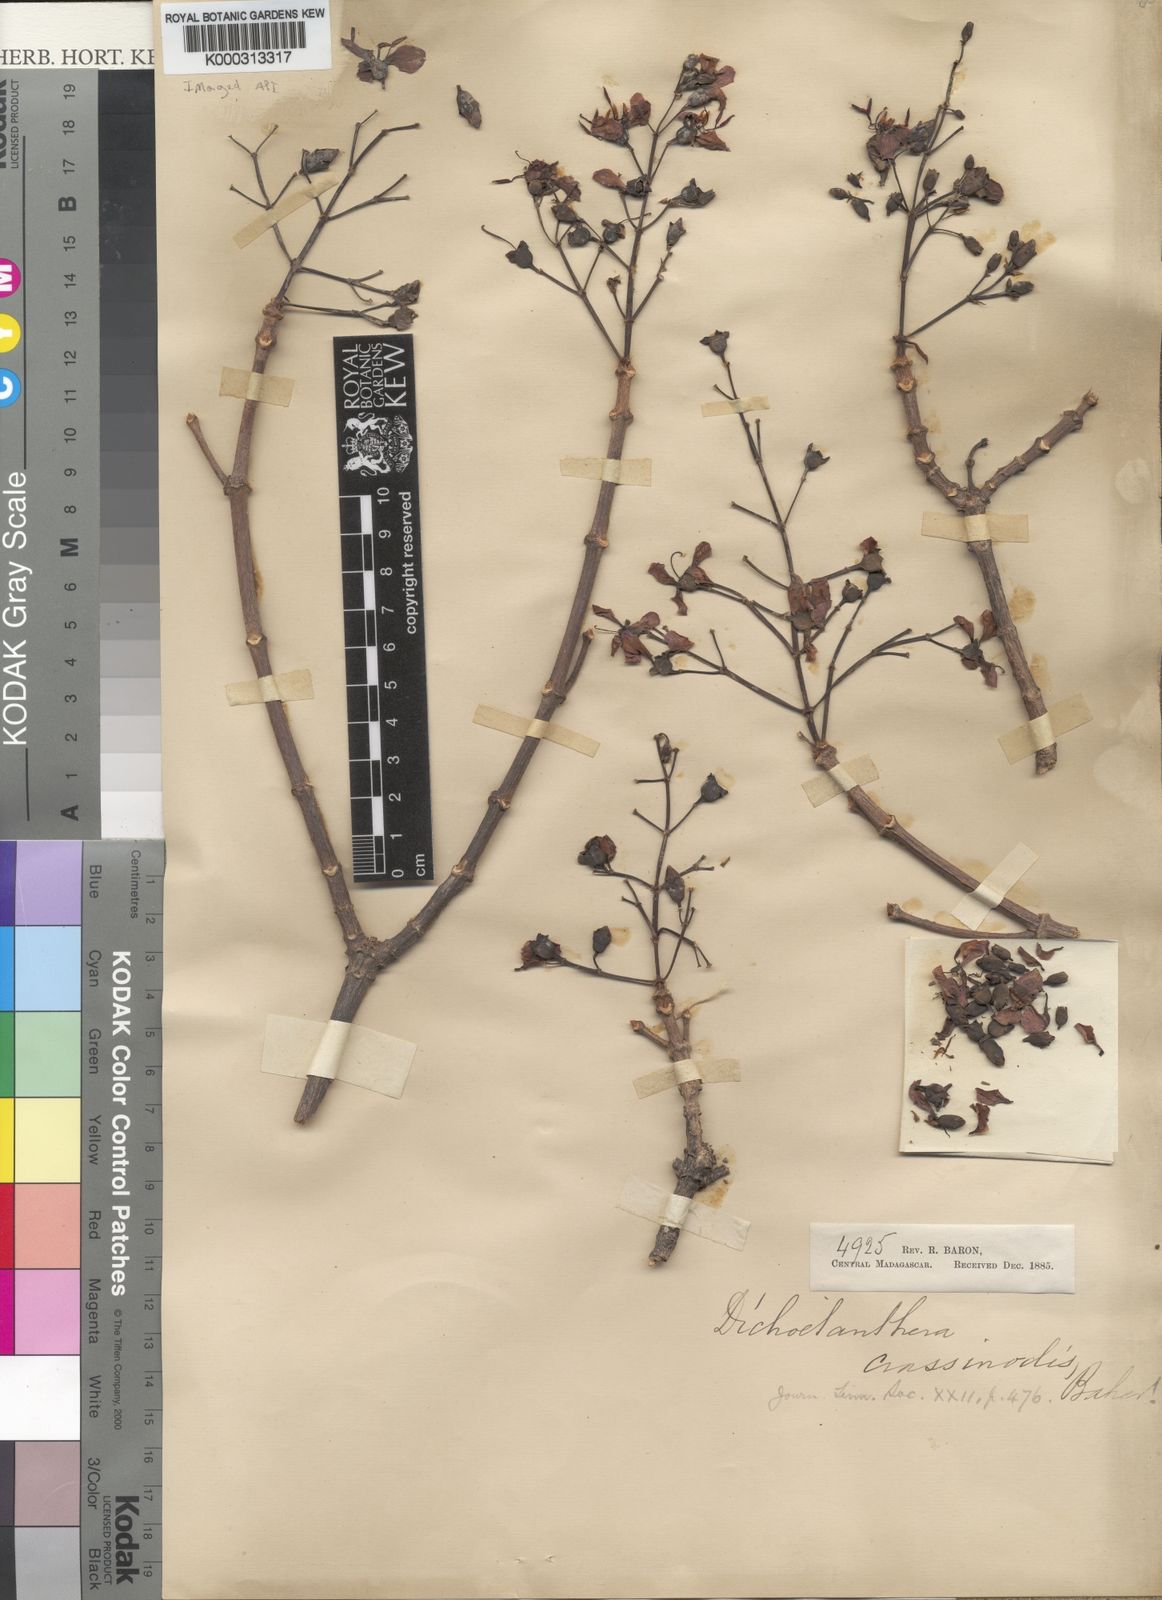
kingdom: Plantae
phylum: Tracheophyta
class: Magnoliopsida
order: Myrtales
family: Melastomataceae
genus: Dichaetanthera
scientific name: Dichaetanthera crassinodis
